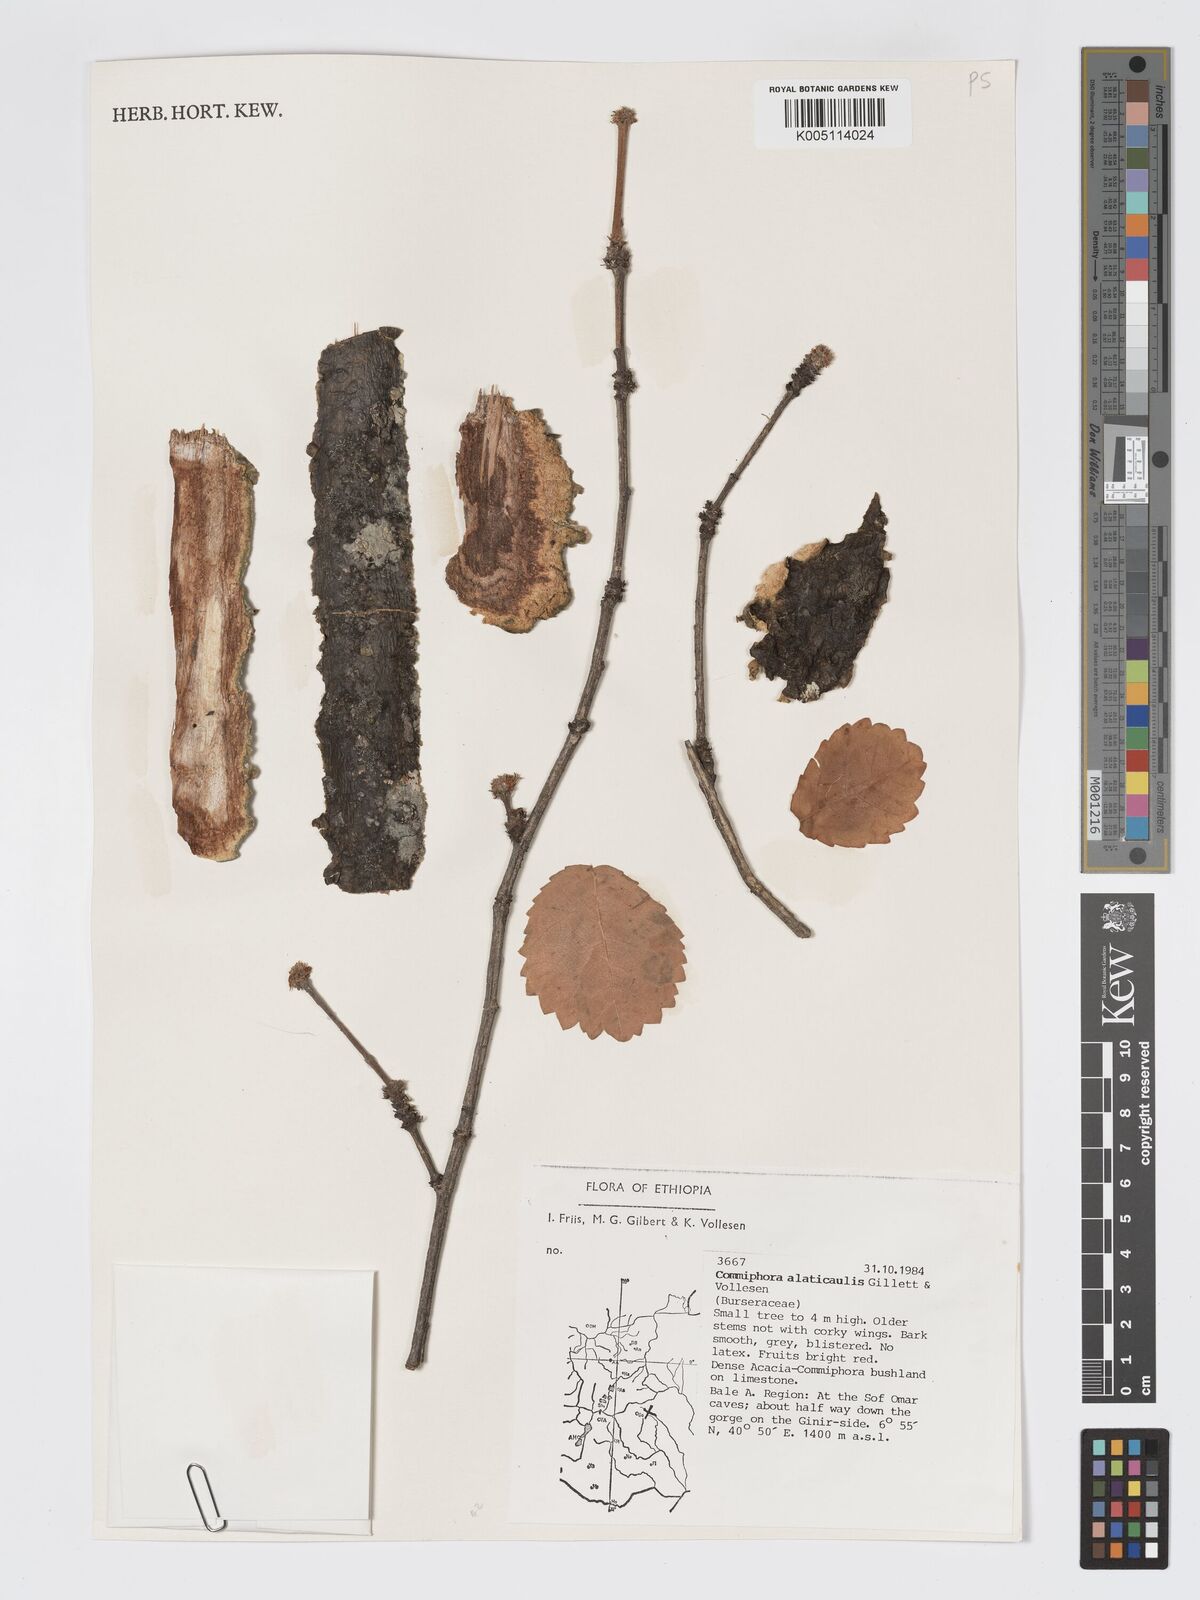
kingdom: Plantae
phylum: Tracheophyta
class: Magnoliopsida
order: Sapindales
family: Burseraceae
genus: Commiphora
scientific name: Commiphora alaticaulis
